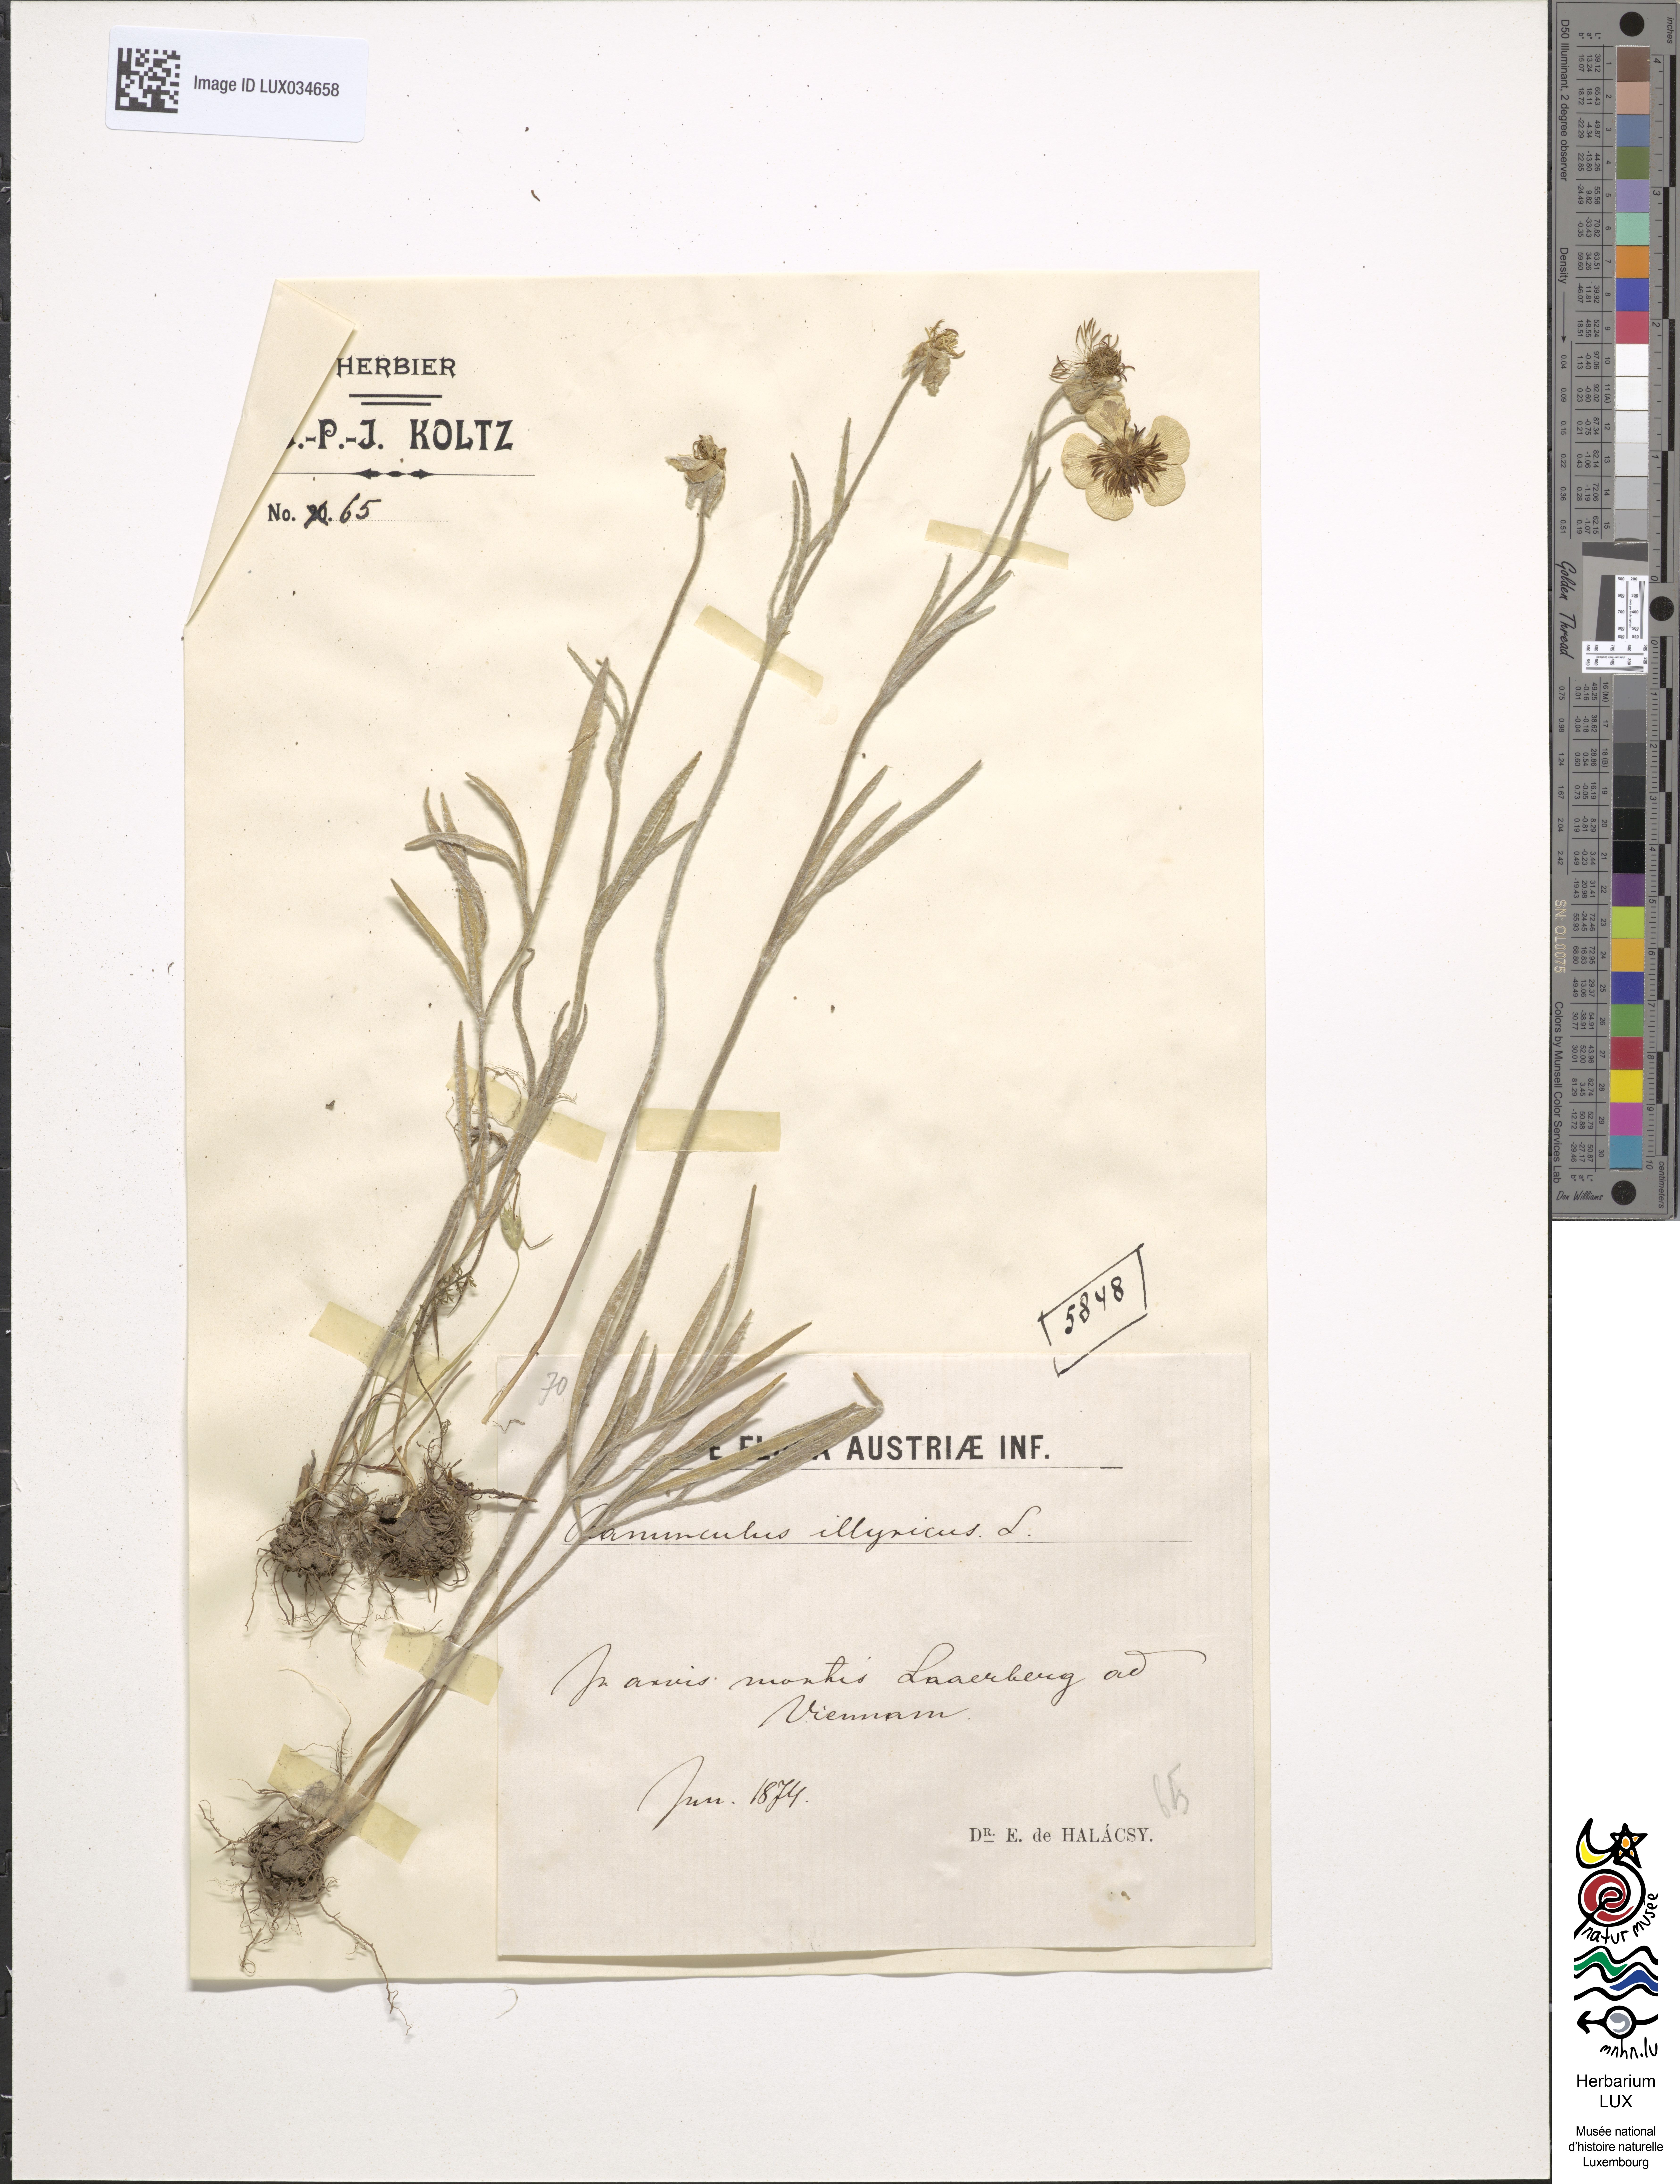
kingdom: Plantae
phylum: Tracheophyta
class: Magnoliopsida
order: Ranunculales
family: Ranunculaceae
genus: Ranunculus
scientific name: Ranunculus illyricus
